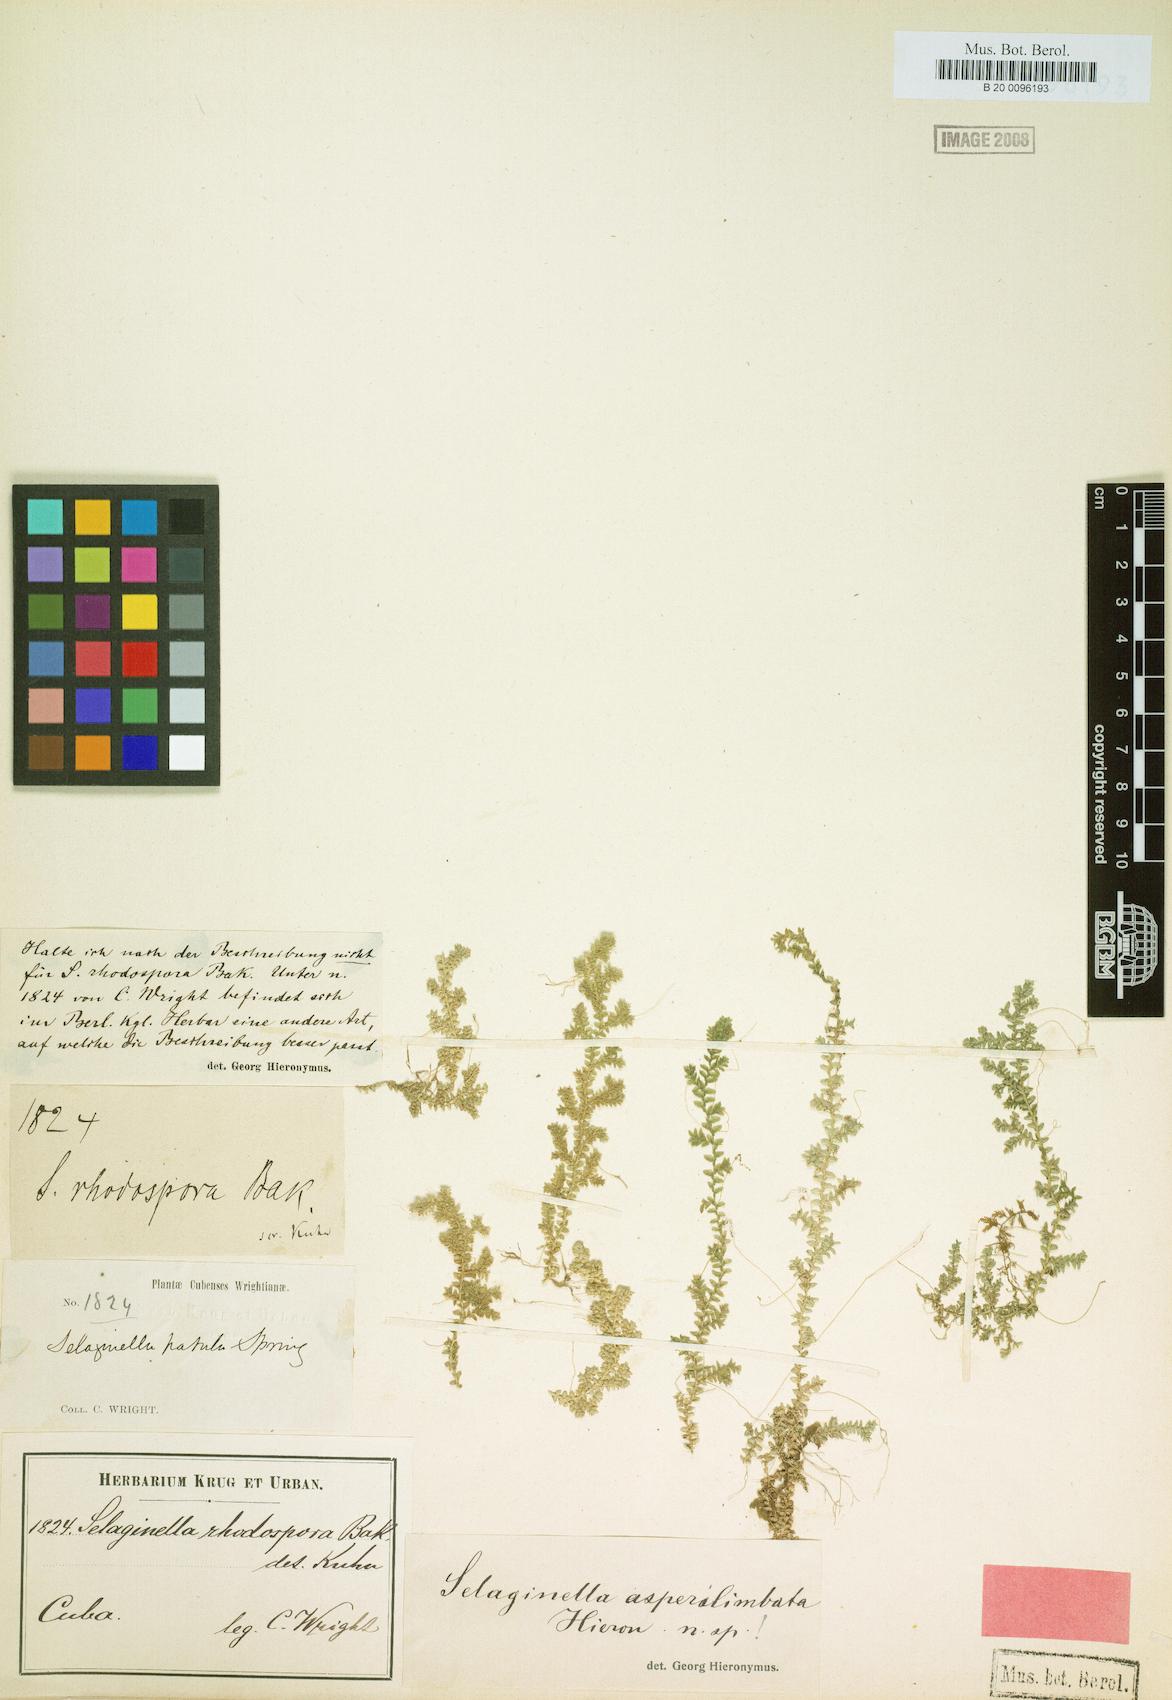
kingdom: Plantae
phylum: Tracheophyta
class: Lycopodiopsida
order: Selaginellales
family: Selaginellaceae
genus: Selaginella
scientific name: Selaginella urquiolae
